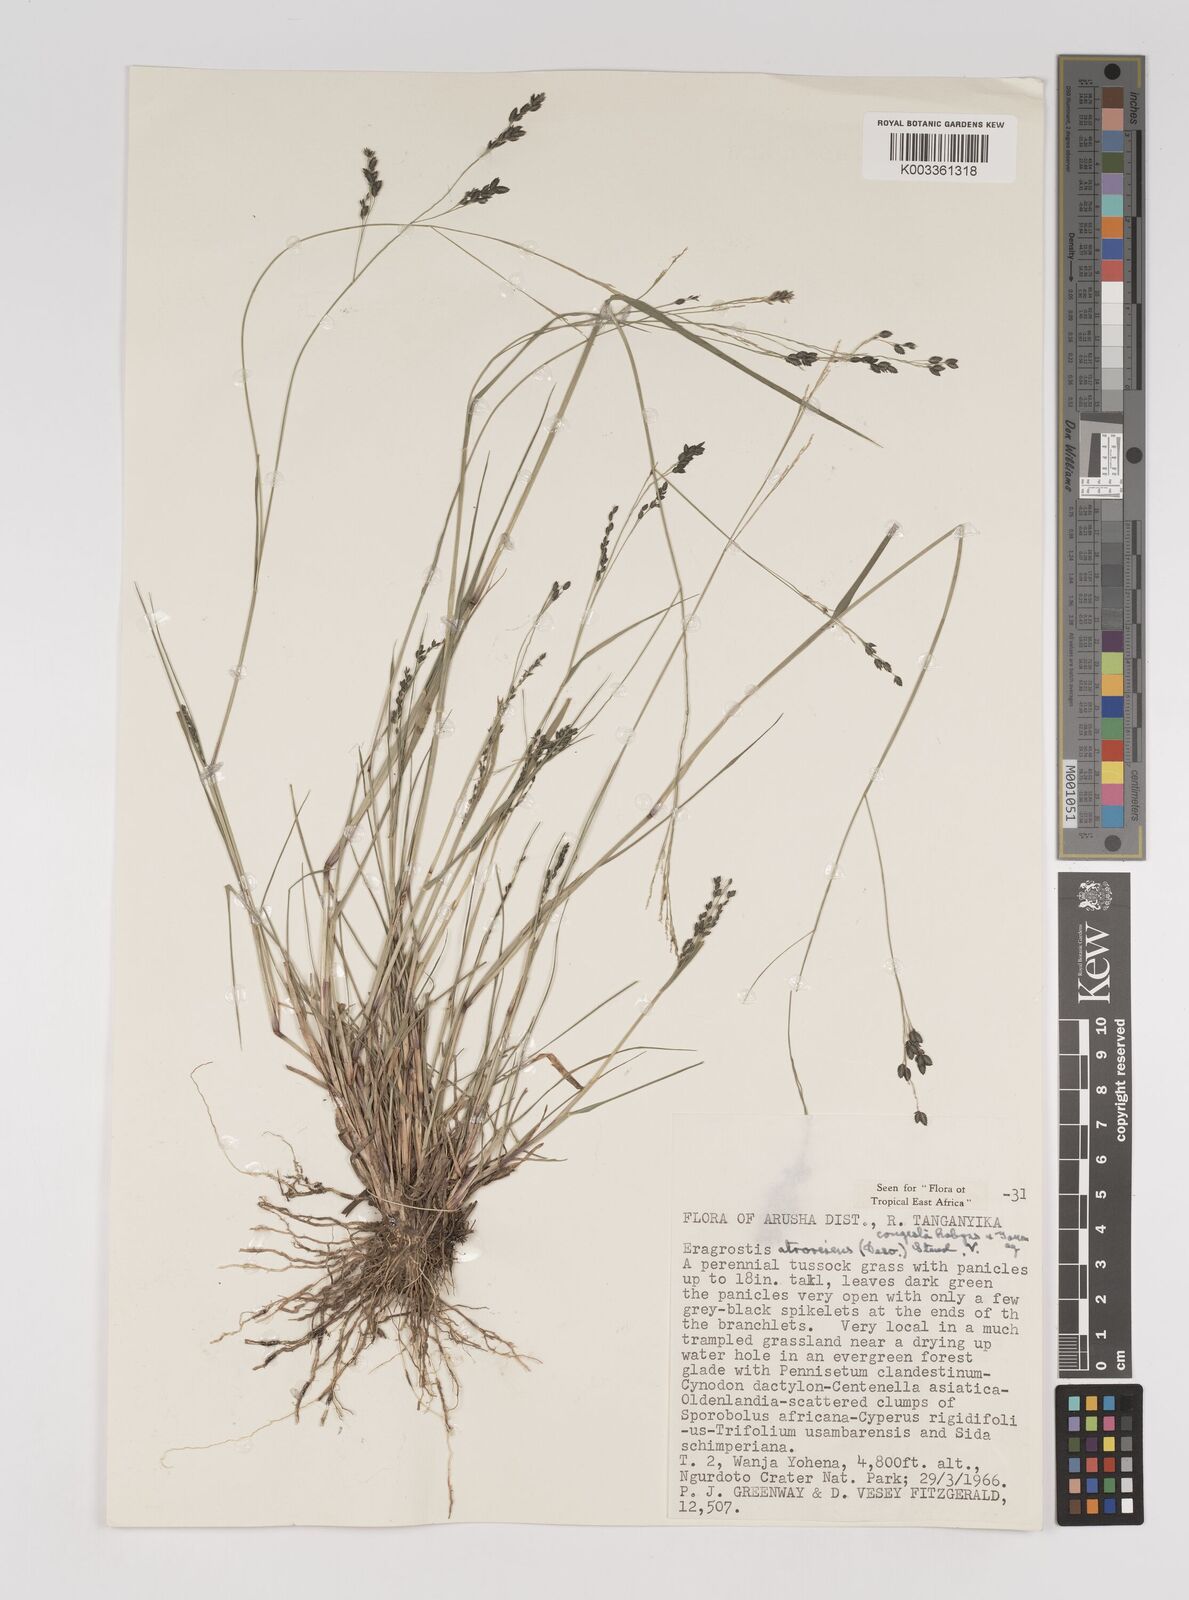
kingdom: Plantae
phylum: Tracheophyta
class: Liliopsida
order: Poales
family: Poaceae
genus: Eragrostis
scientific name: Eragrostis botryodes
